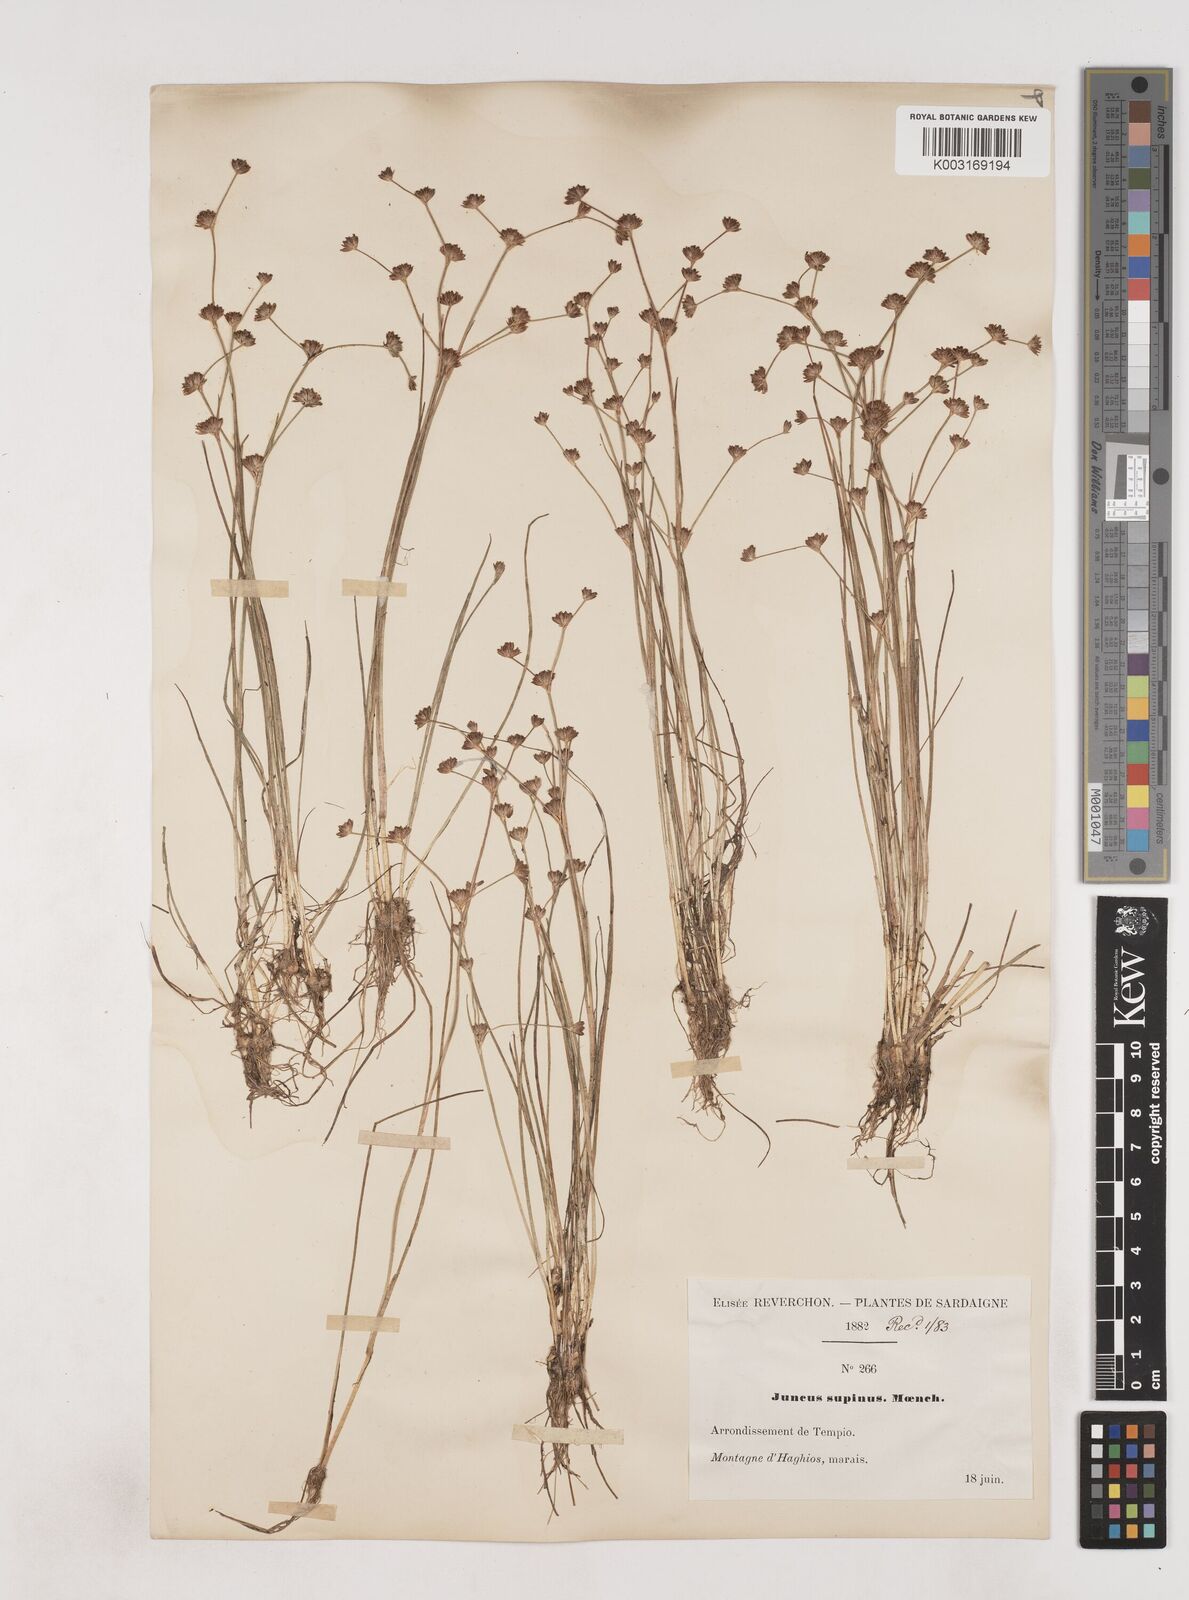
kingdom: Plantae
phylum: Tracheophyta
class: Liliopsida
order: Poales
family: Juncaceae
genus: Juncus
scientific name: Juncus bulbosus
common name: Bulbous rush
